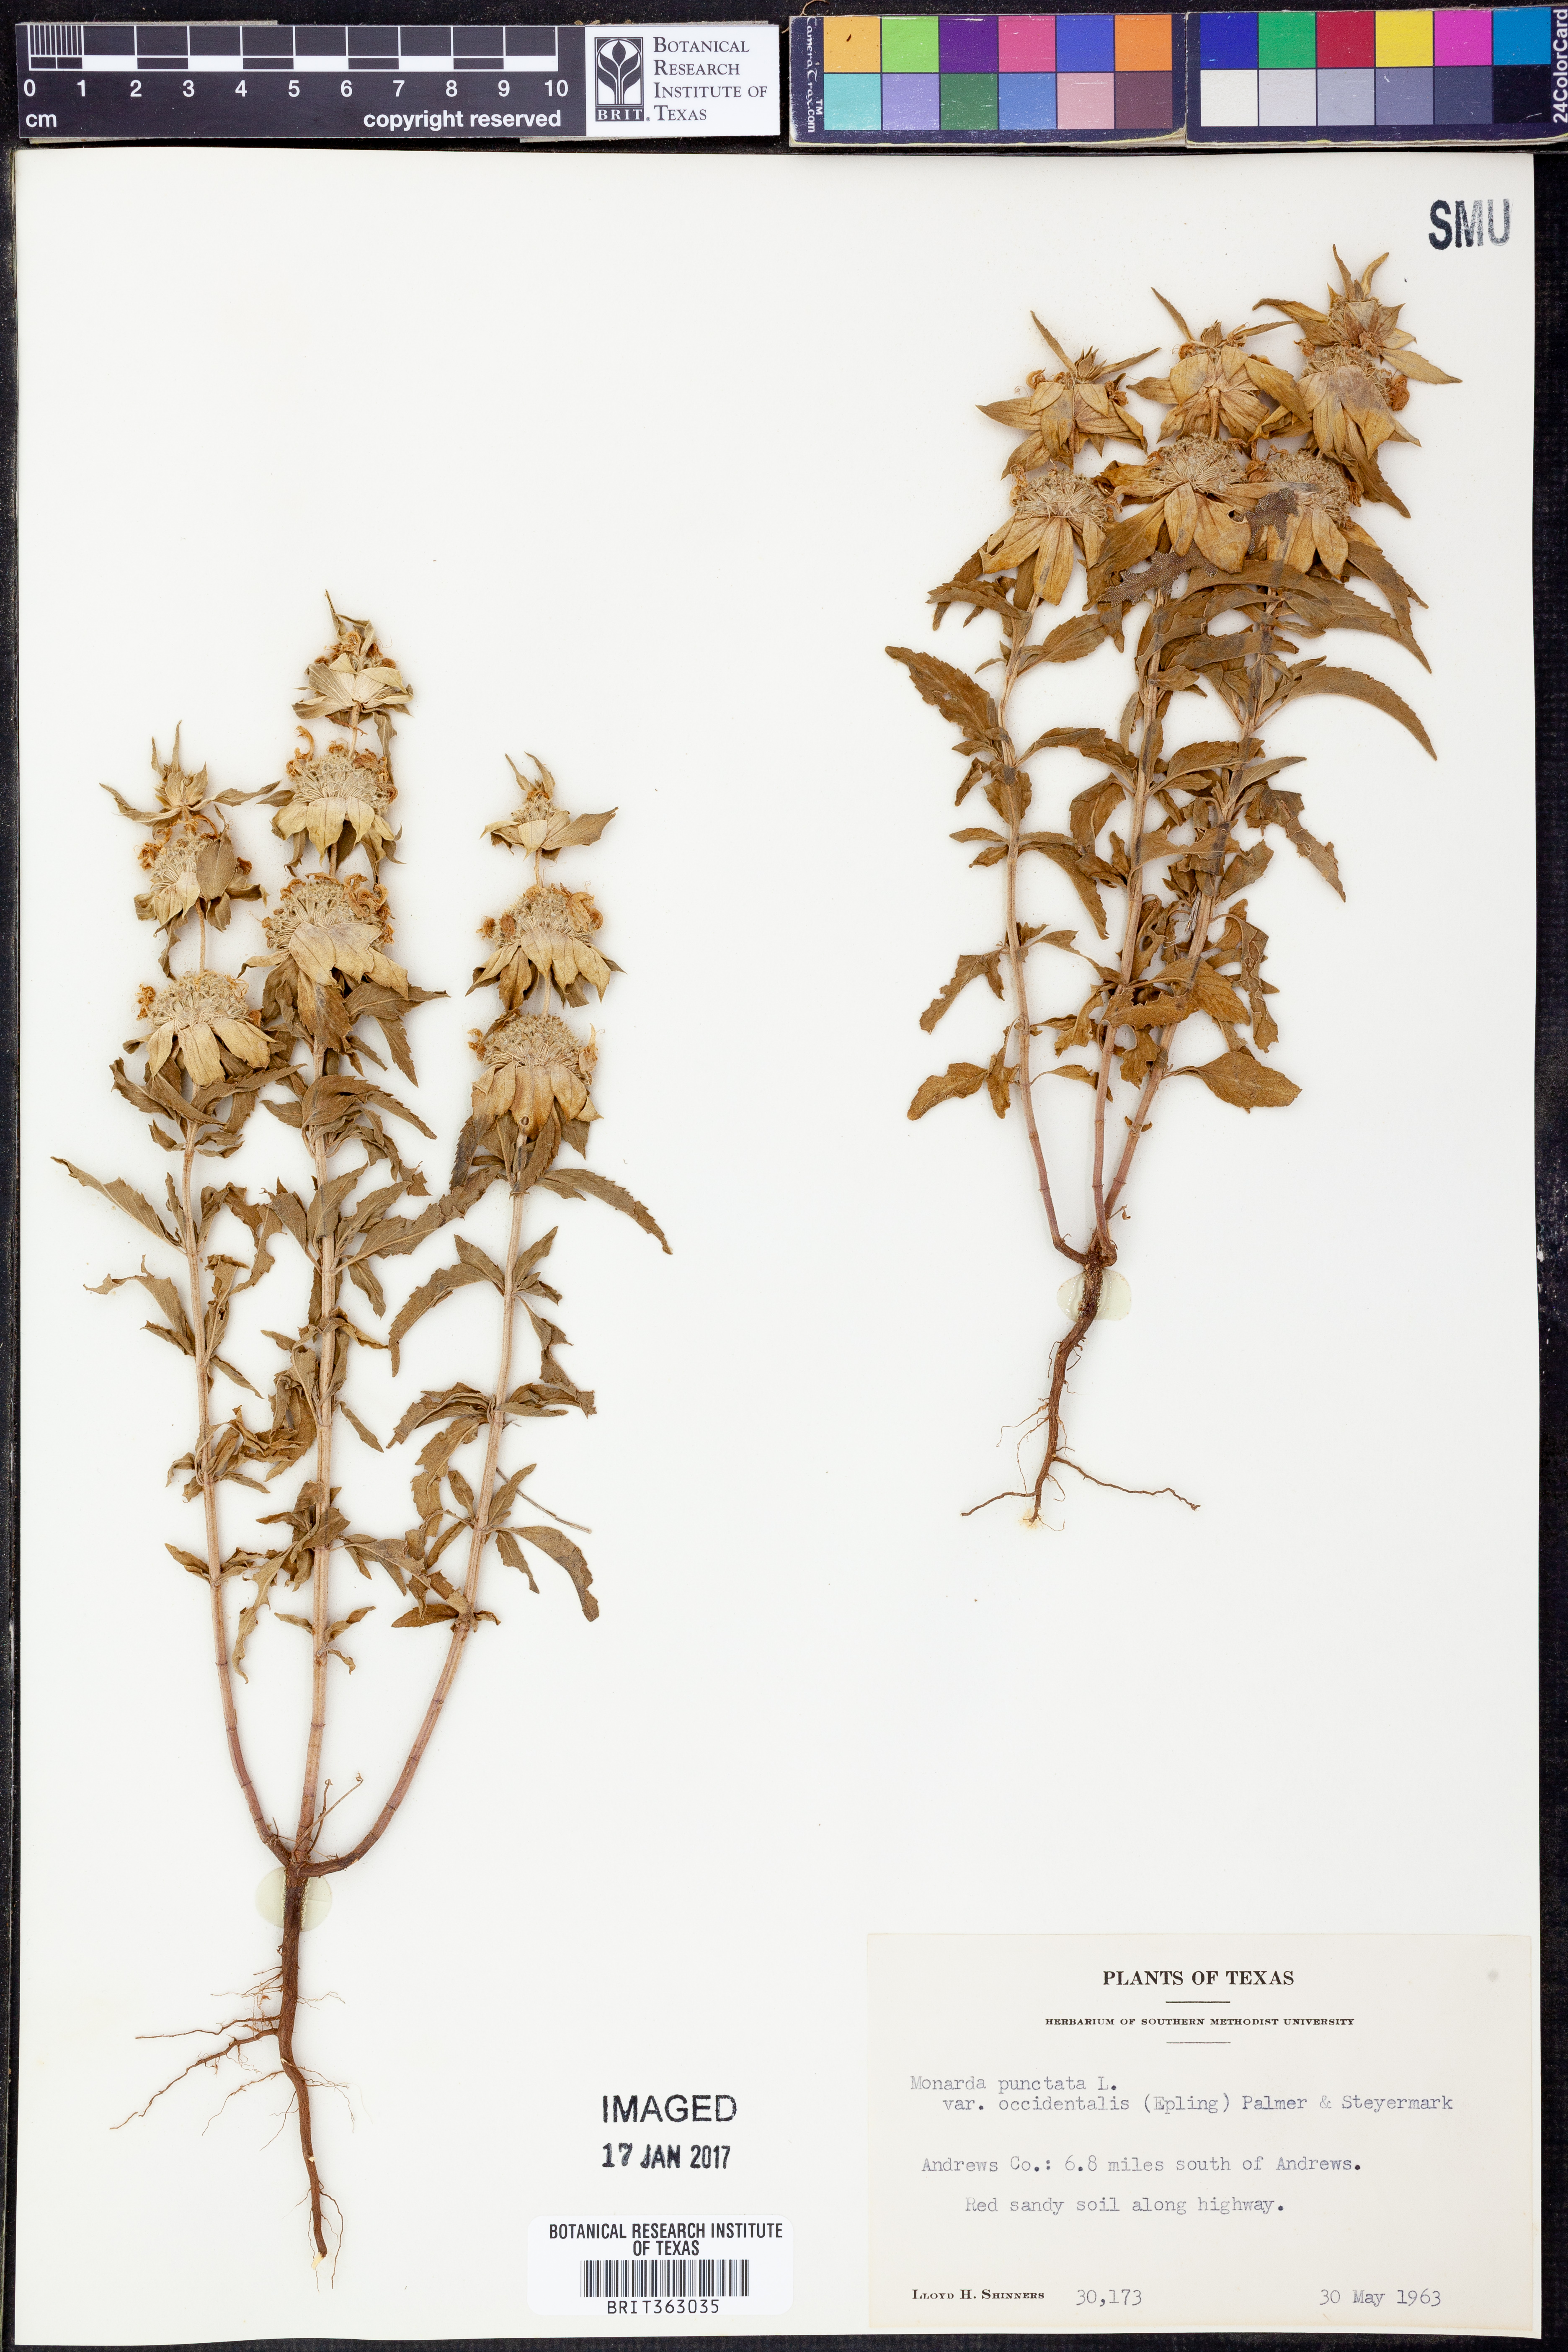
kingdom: Plantae
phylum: Tracheophyta
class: Magnoliopsida
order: Lamiales
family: Lamiaceae
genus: Monarda
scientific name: Monarda punctata
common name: Dotted monarda
